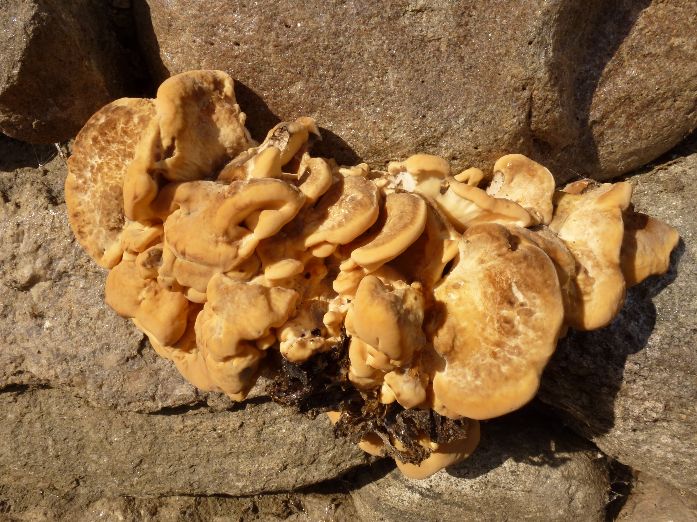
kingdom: Fungi
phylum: Basidiomycota
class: Agaricomycetes
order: Polyporales
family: Meripilaceae
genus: Meripilus
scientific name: Meripilus giganteus
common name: kæmpeporesvamp
